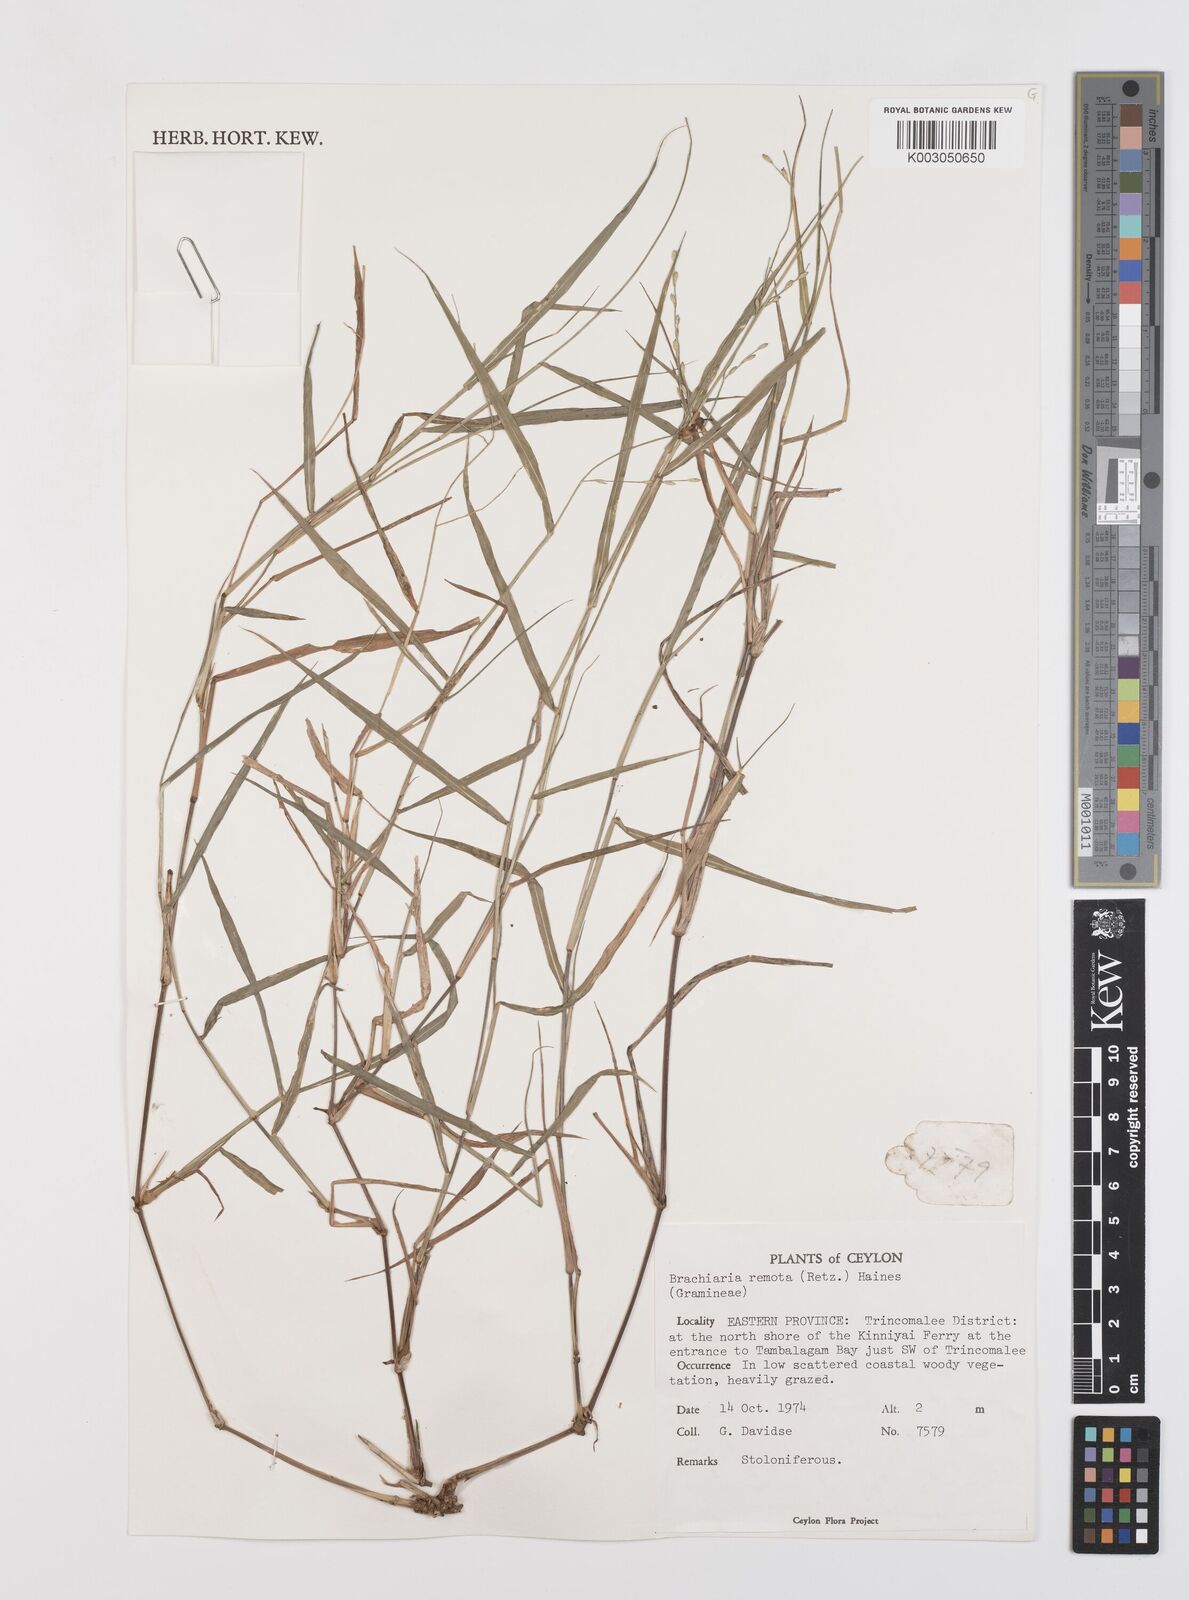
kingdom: Plantae
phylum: Tracheophyta
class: Liliopsida
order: Poales
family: Poaceae
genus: Urochloa
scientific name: Urochloa Brachiaria remota
